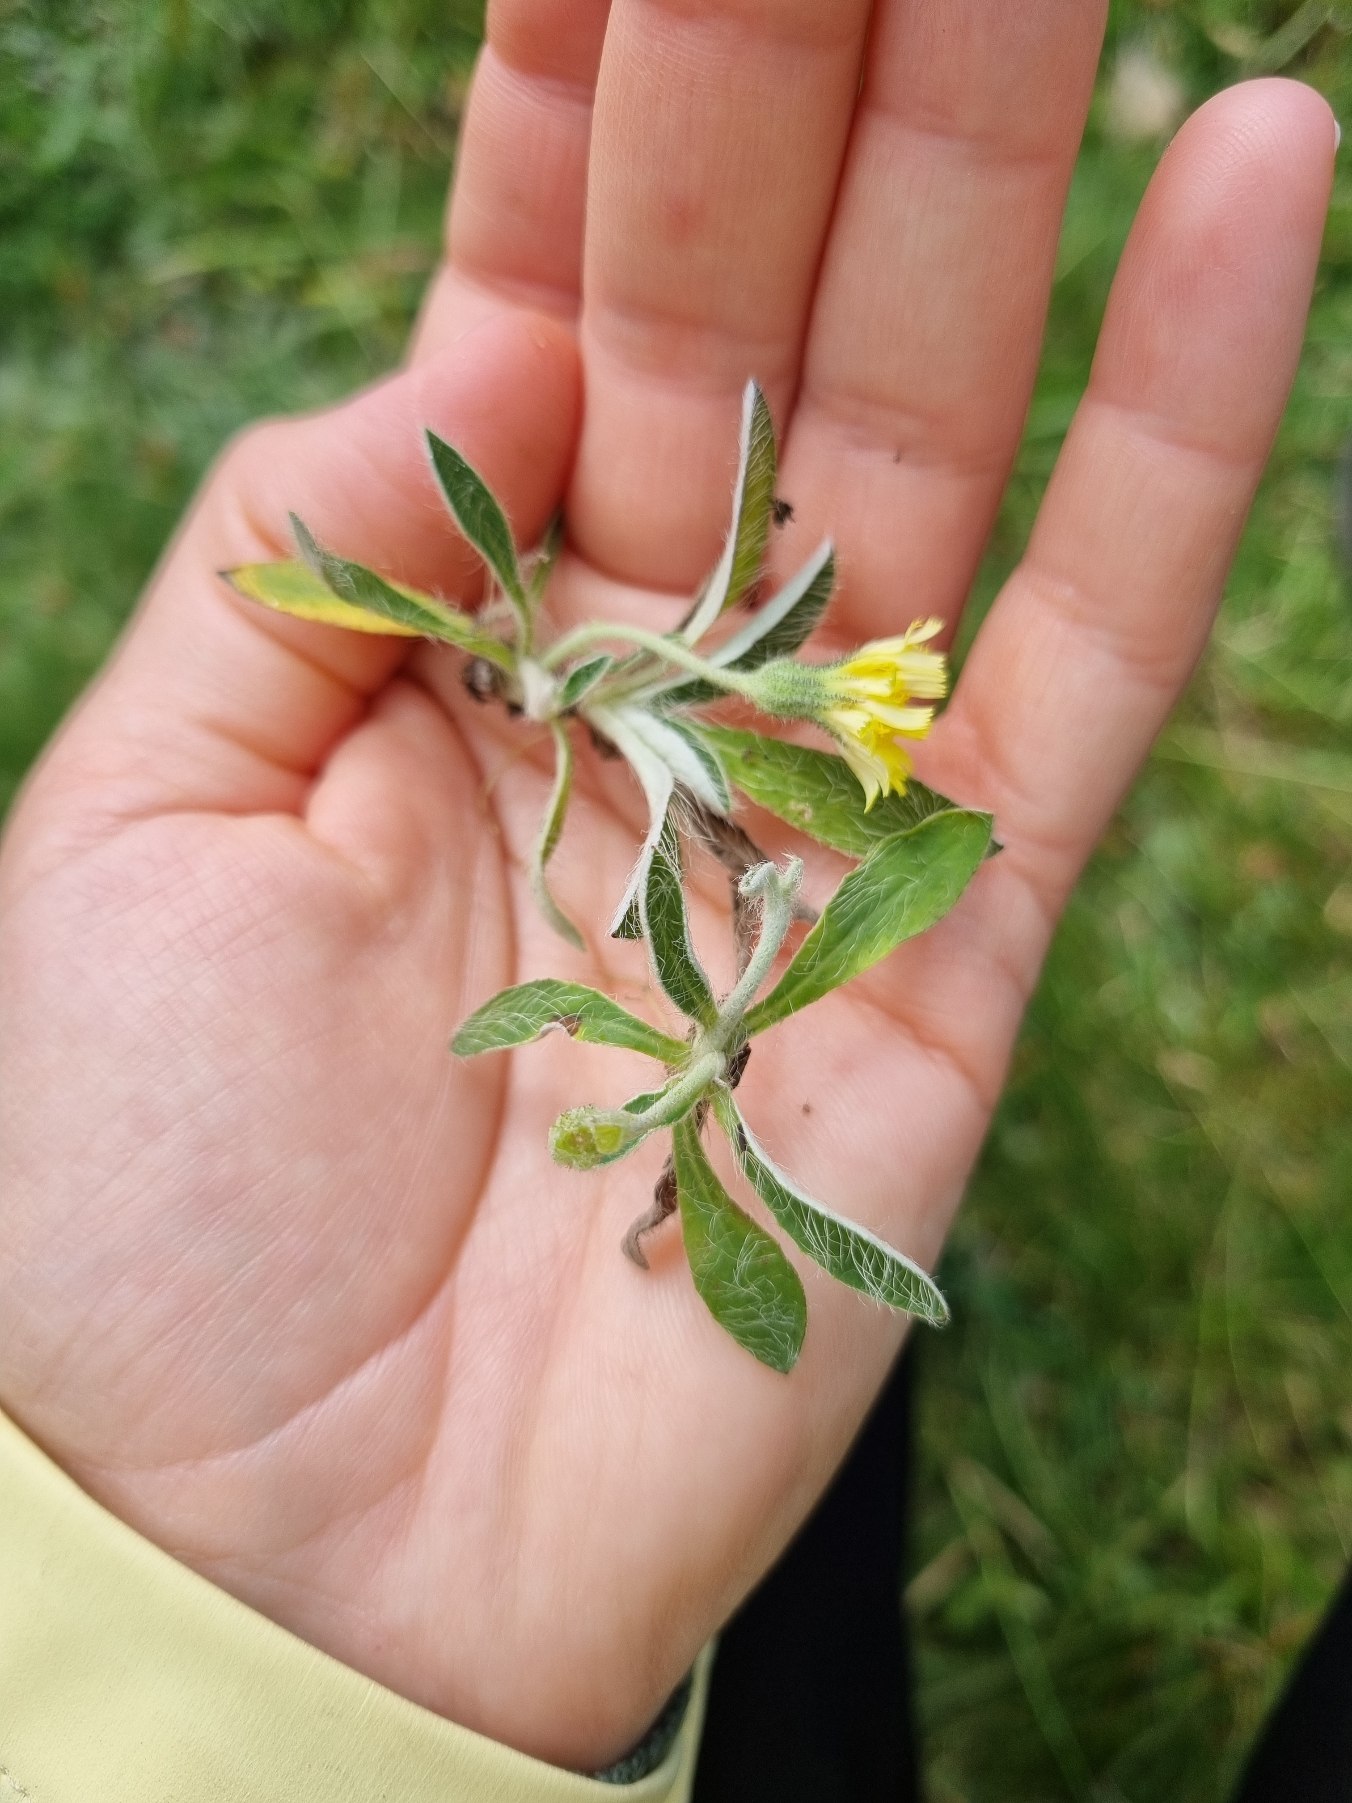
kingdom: Plantae
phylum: Tracheophyta
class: Magnoliopsida
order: Asterales
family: Asteraceae
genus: Pilosella
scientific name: Pilosella officinarum
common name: Håret høgeurt
